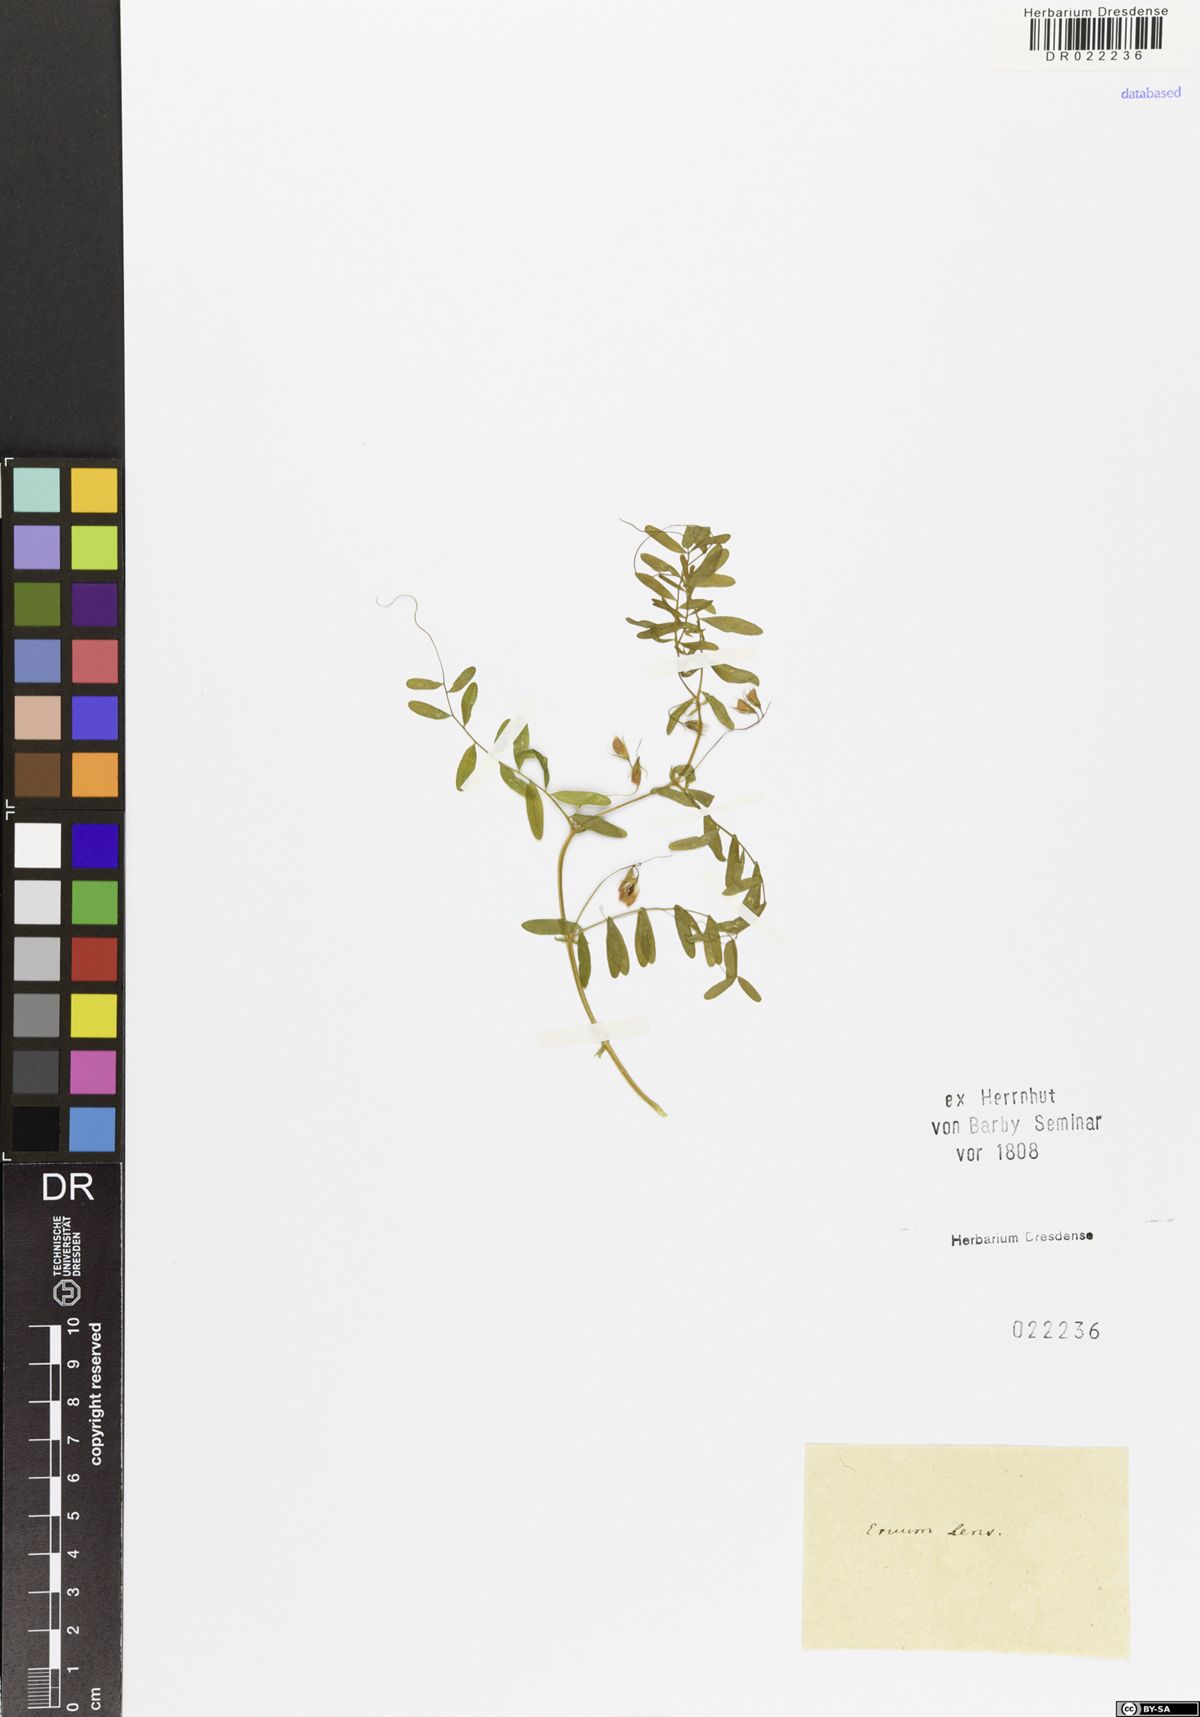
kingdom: Plantae
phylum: Tracheophyta
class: Magnoliopsida
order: Fabales
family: Fabaceae
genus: Vicia
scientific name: Vicia lens
